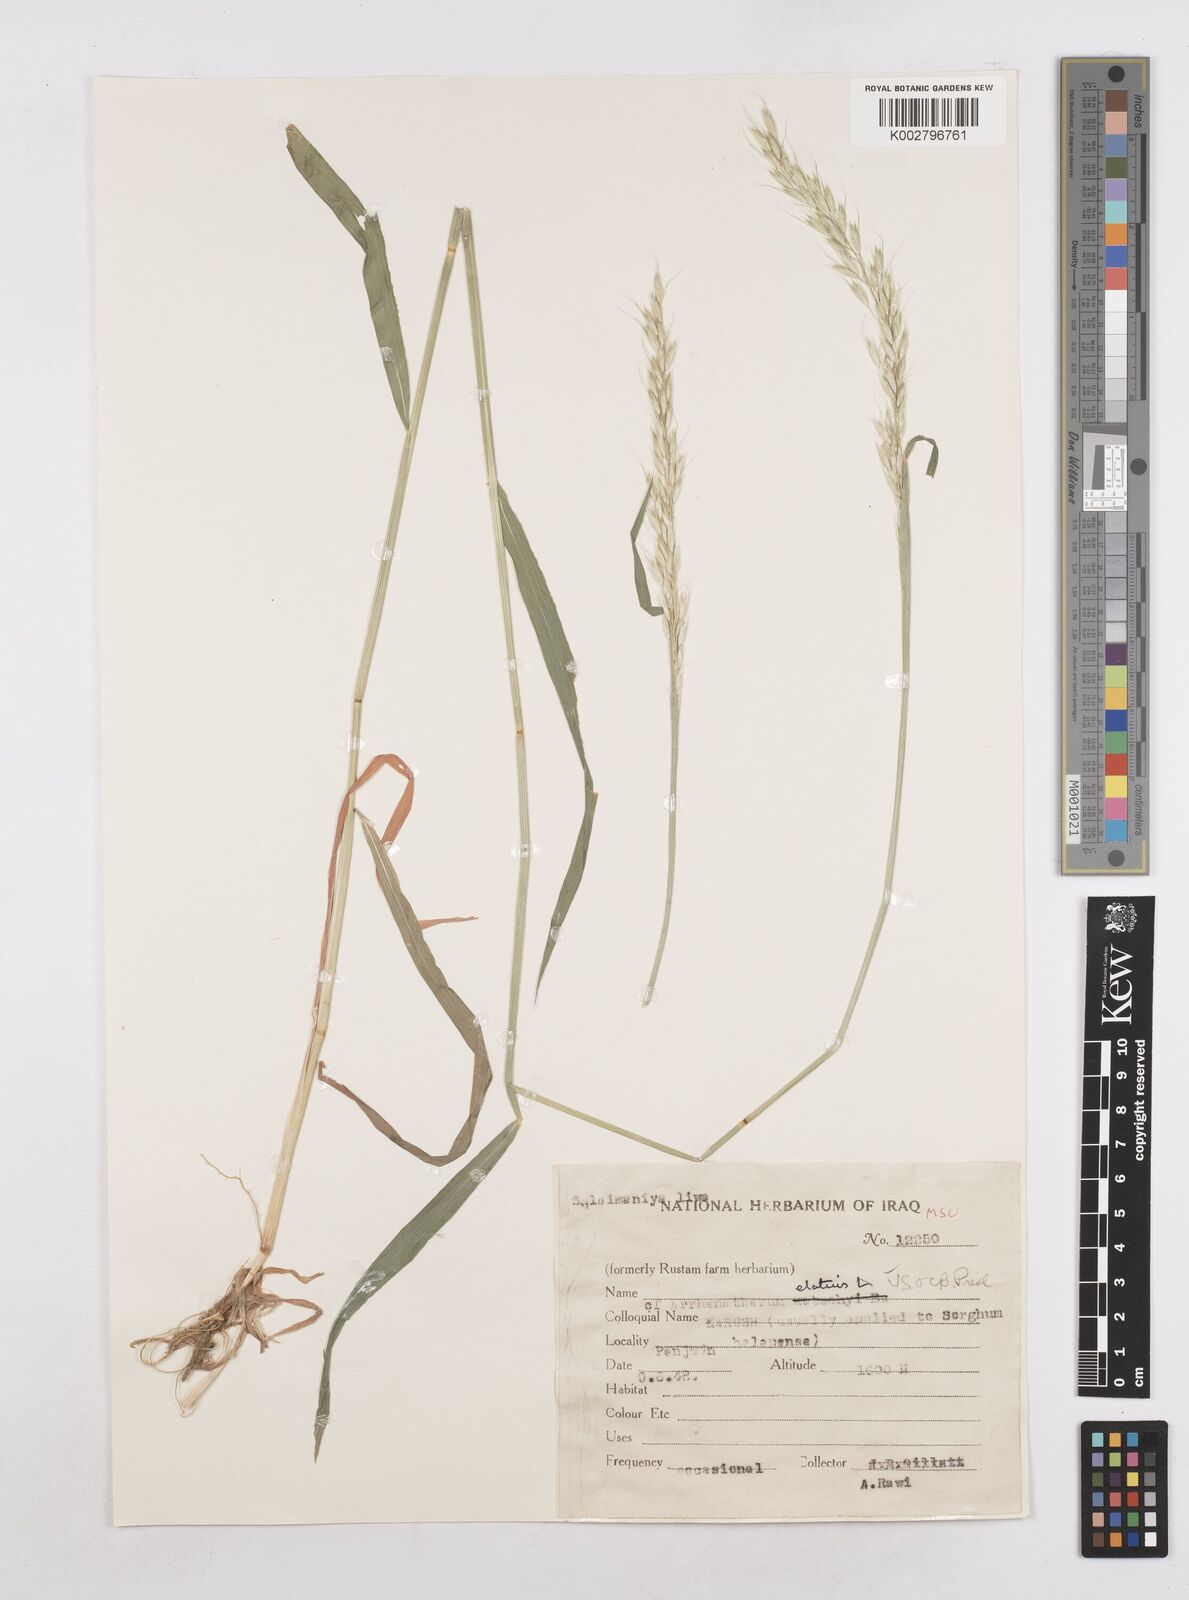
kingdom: Plantae
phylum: Tracheophyta
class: Liliopsida
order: Poales
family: Poaceae
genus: Arrhenatherum
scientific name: Arrhenatherum elatius
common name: Tall oatgrass
